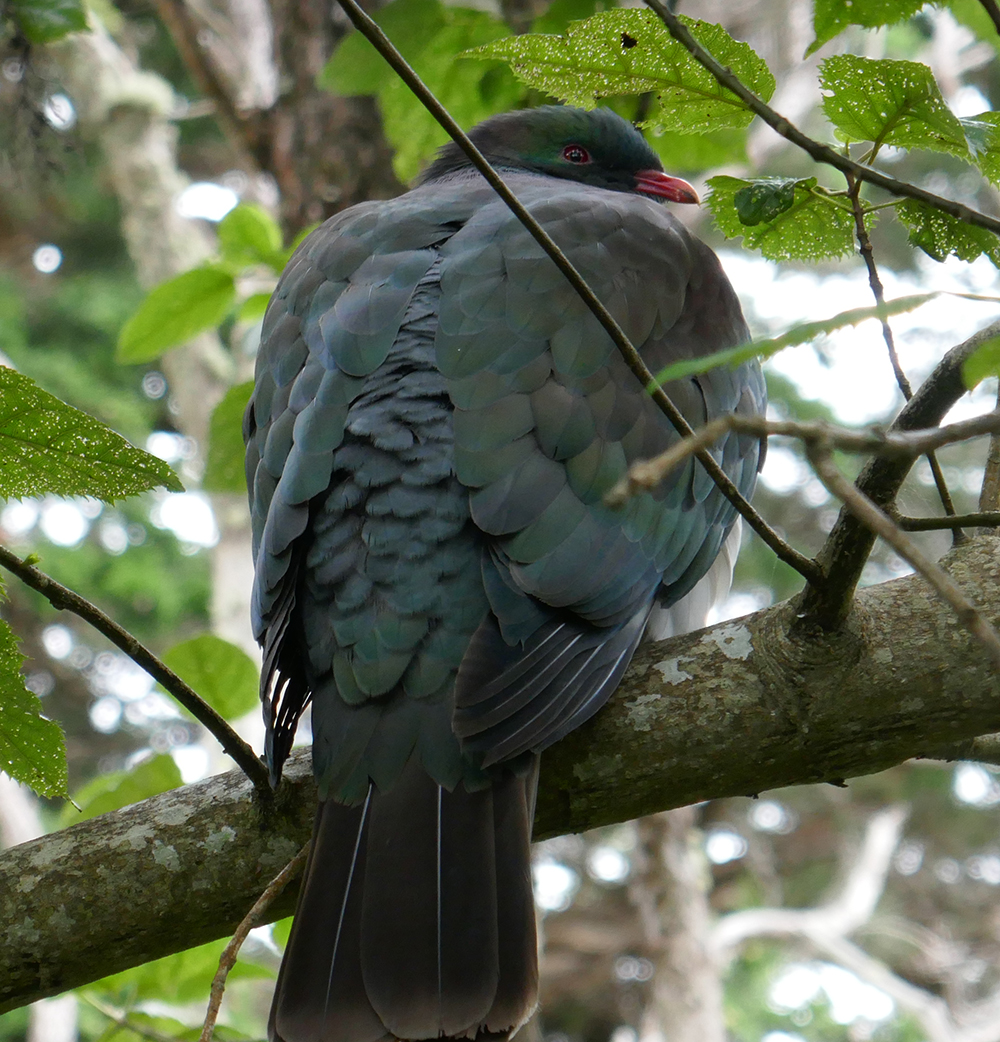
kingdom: Animalia
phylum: Chordata
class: Aves
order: Columbiformes
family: Columbidae
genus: Hemiphaga
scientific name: Hemiphaga novaeseelandiae
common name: New zealand pigeon
